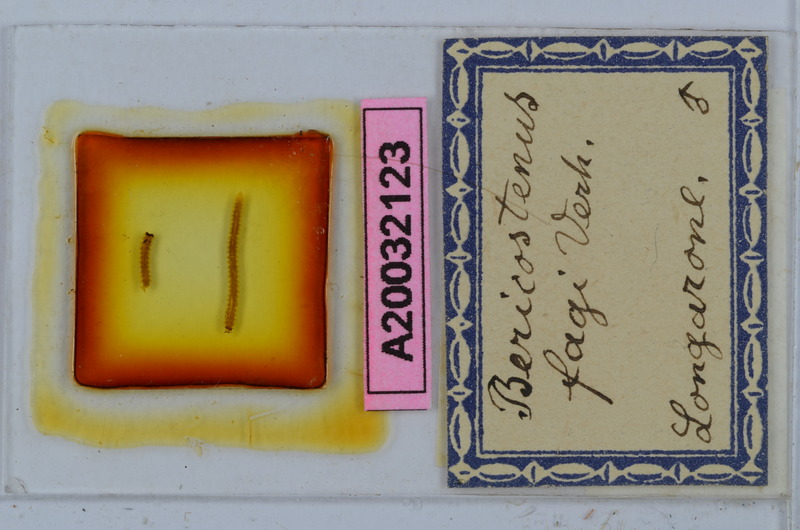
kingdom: Animalia
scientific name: Animalia
